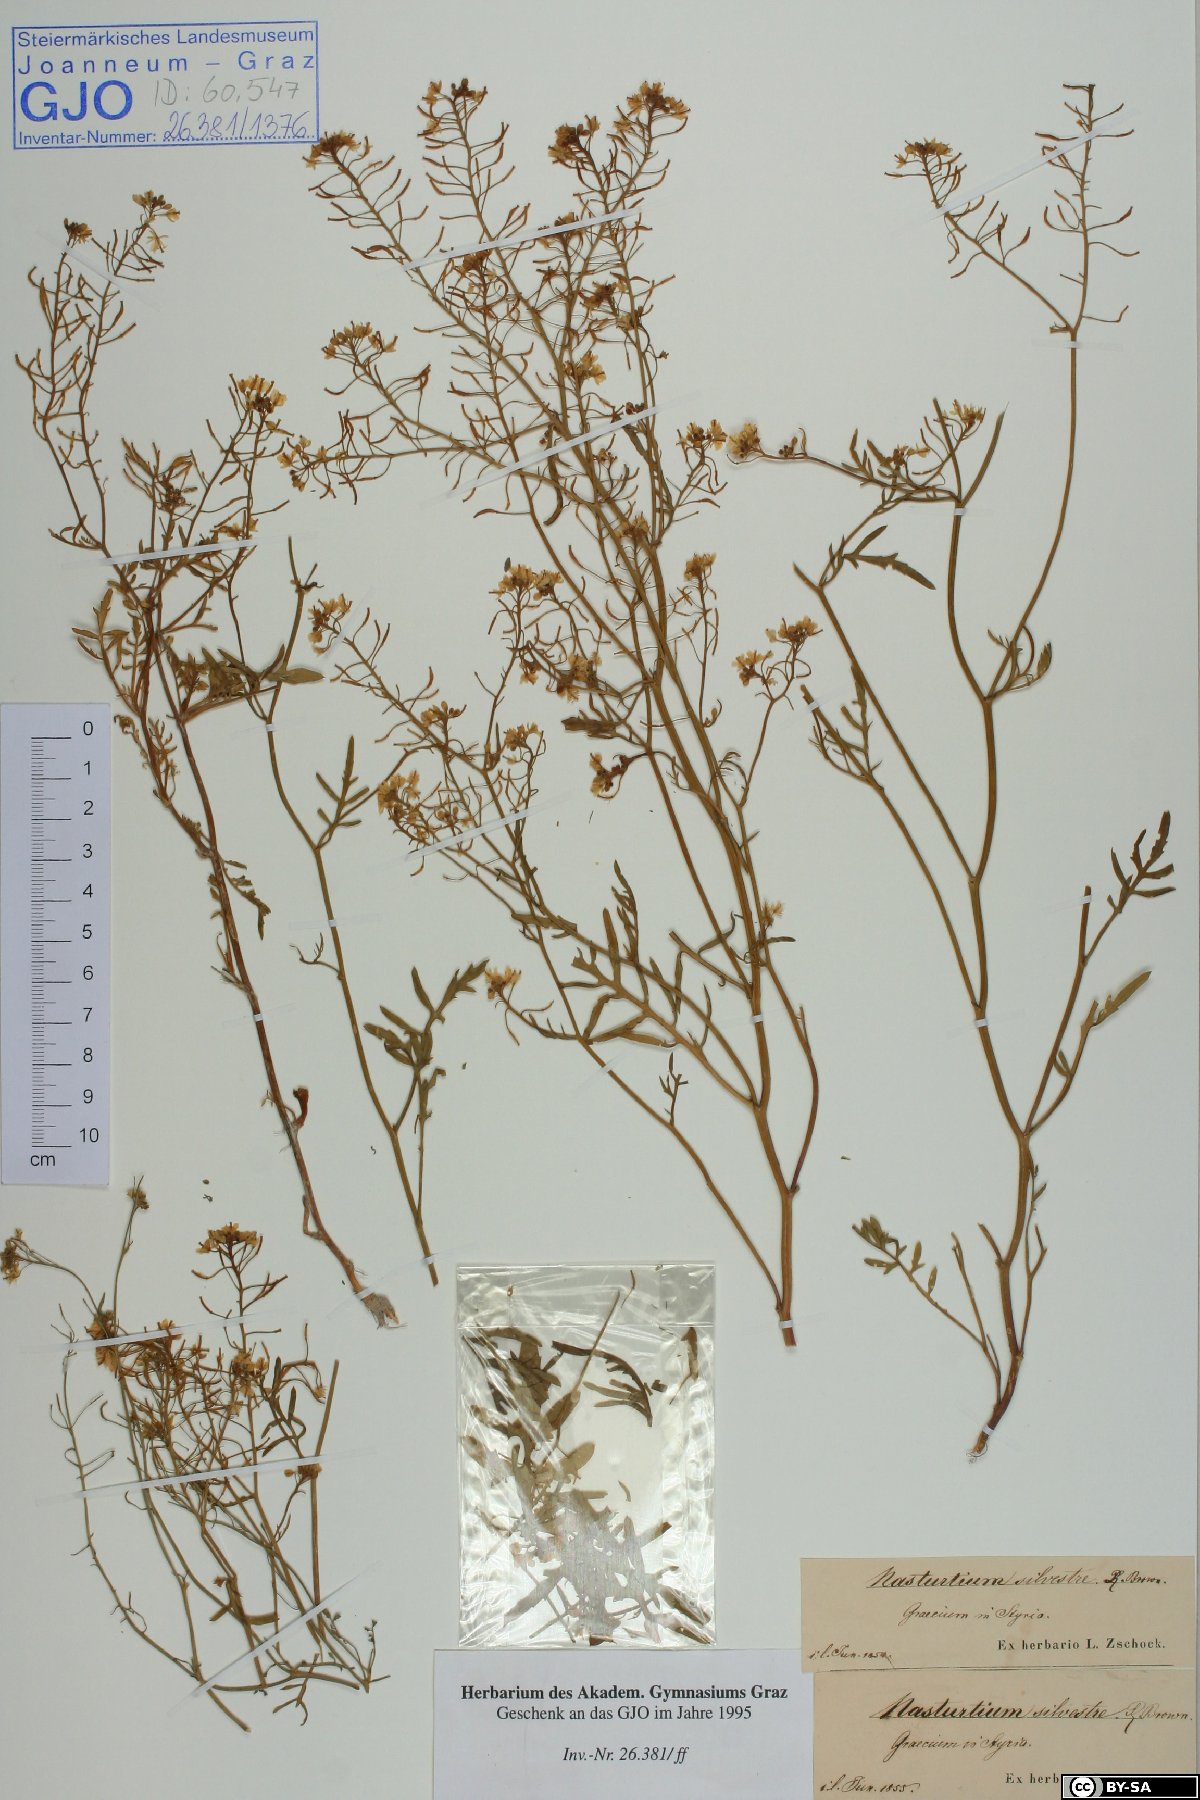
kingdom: Plantae
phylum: Tracheophyta
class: Magnoliopsida
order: Brassicales
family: Brassicaceae
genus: Rorippa
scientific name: Rorippa sylvestris
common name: Creeping yellowcress
